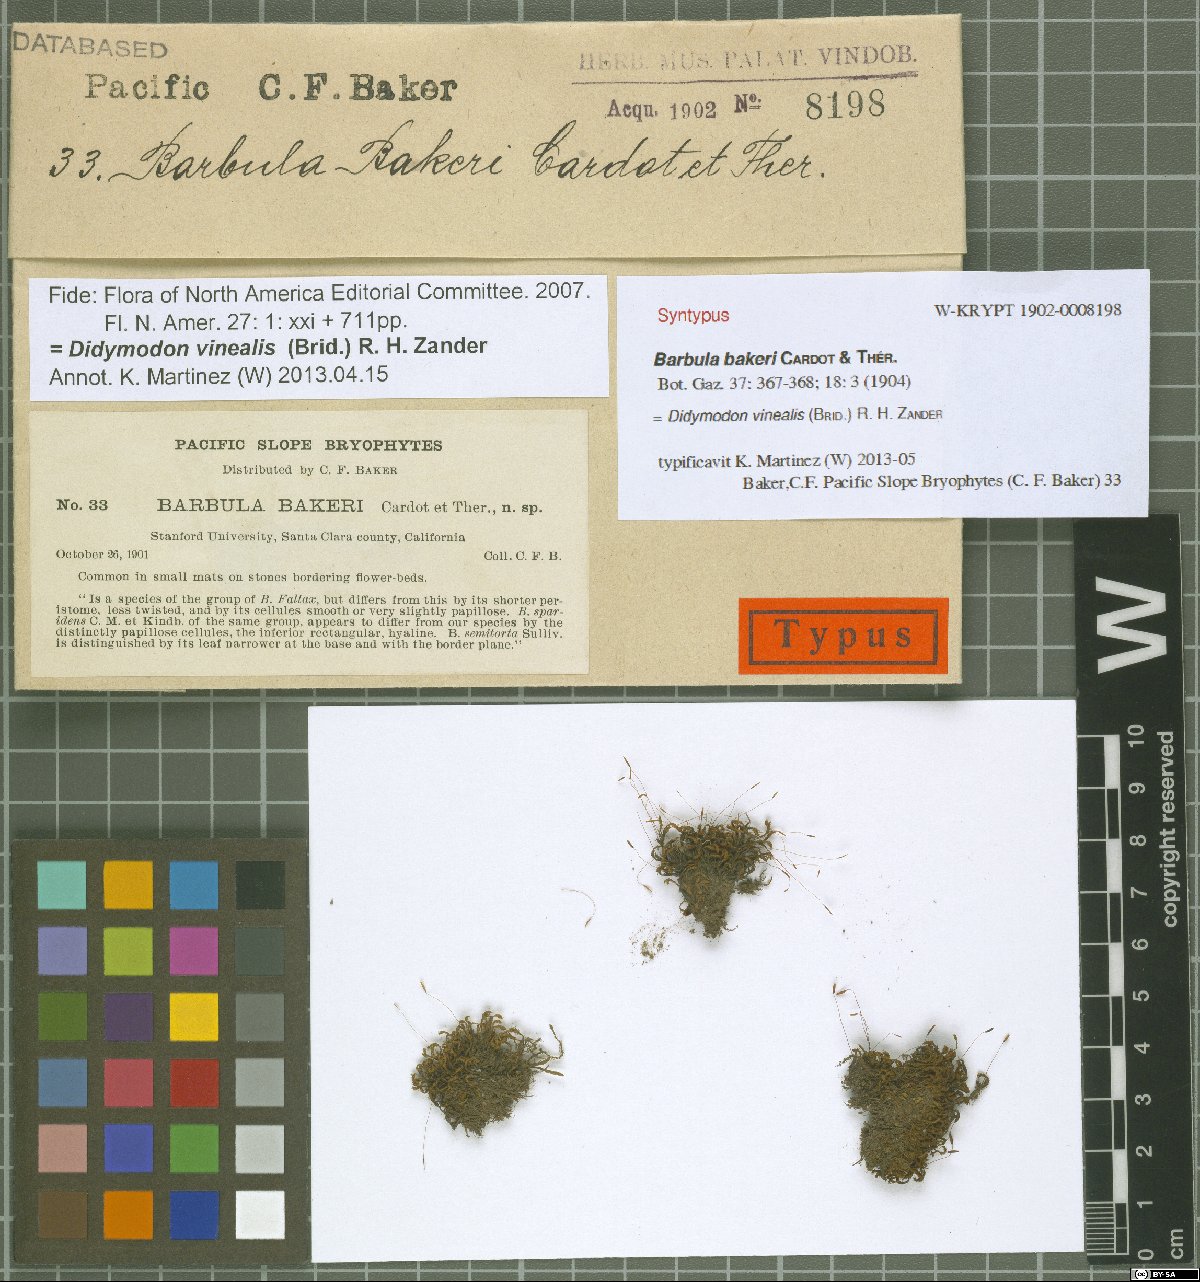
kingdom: Plantae
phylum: Bryophyta
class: Bryopsida
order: Pottiales
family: Pottiaceae
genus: Vinealobryum
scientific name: Vinealobryum vineale
